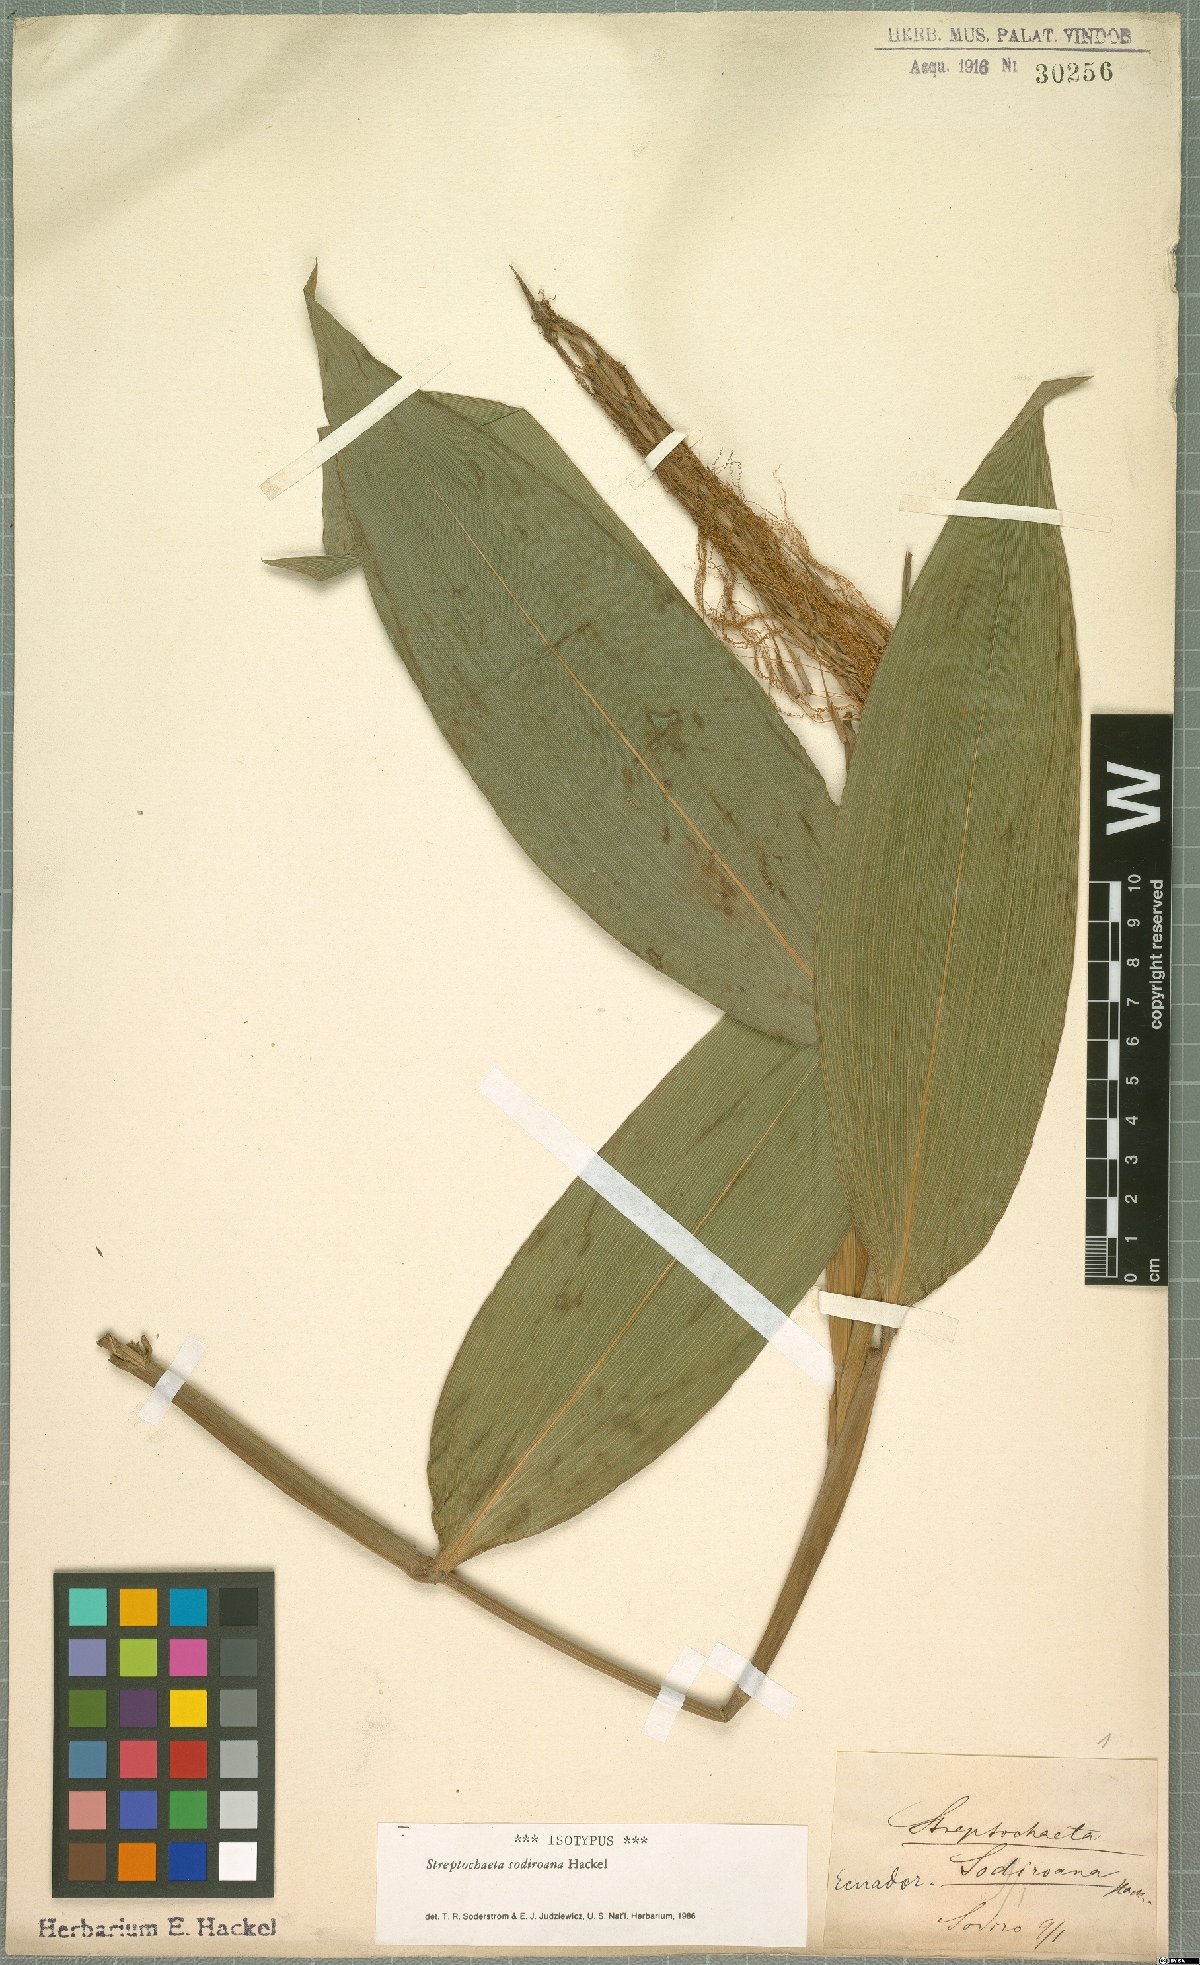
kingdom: Plantae
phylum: Tracheophyta
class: Liliopsida
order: Poales
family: Poaceae
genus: Streptochaeta
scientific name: Streptochaeta sodiroana
